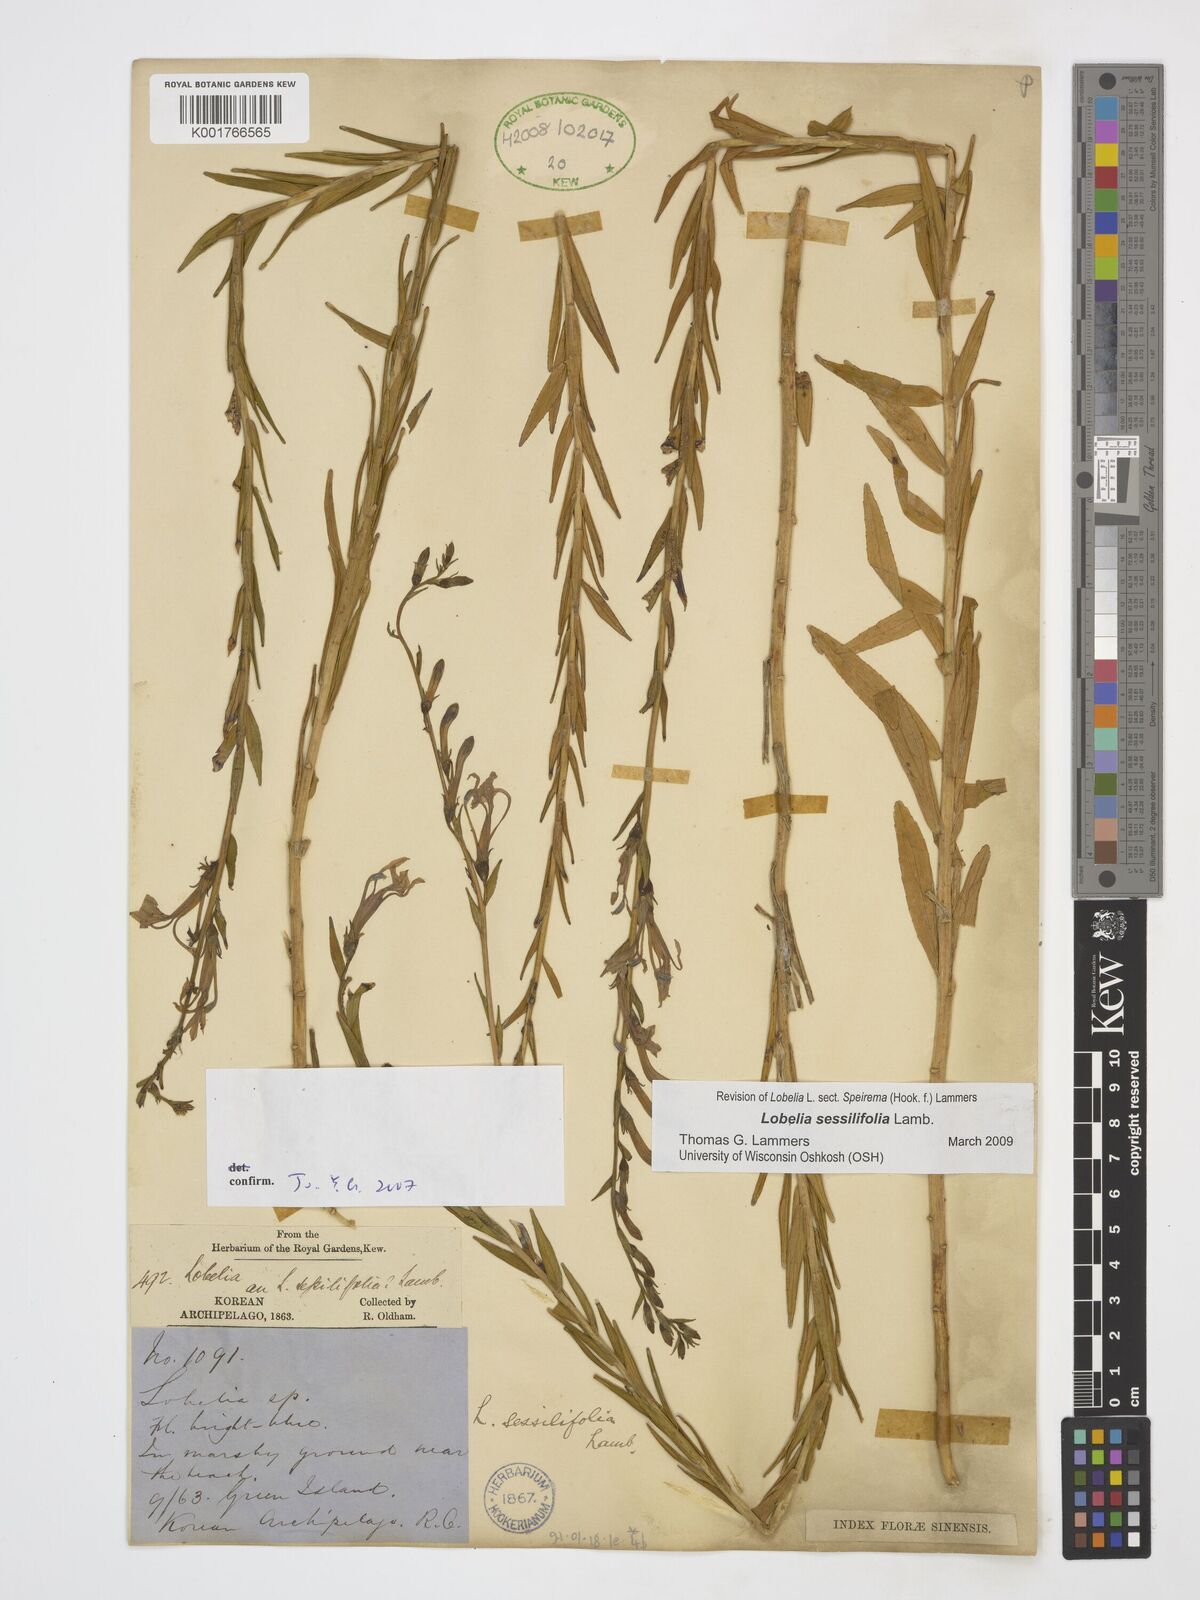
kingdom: Plantae
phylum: Tracheophyta
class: Magnoliopsida
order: Asterales
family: Campanulaceae
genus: Lobelia
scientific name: Lobelia sessilifolia
